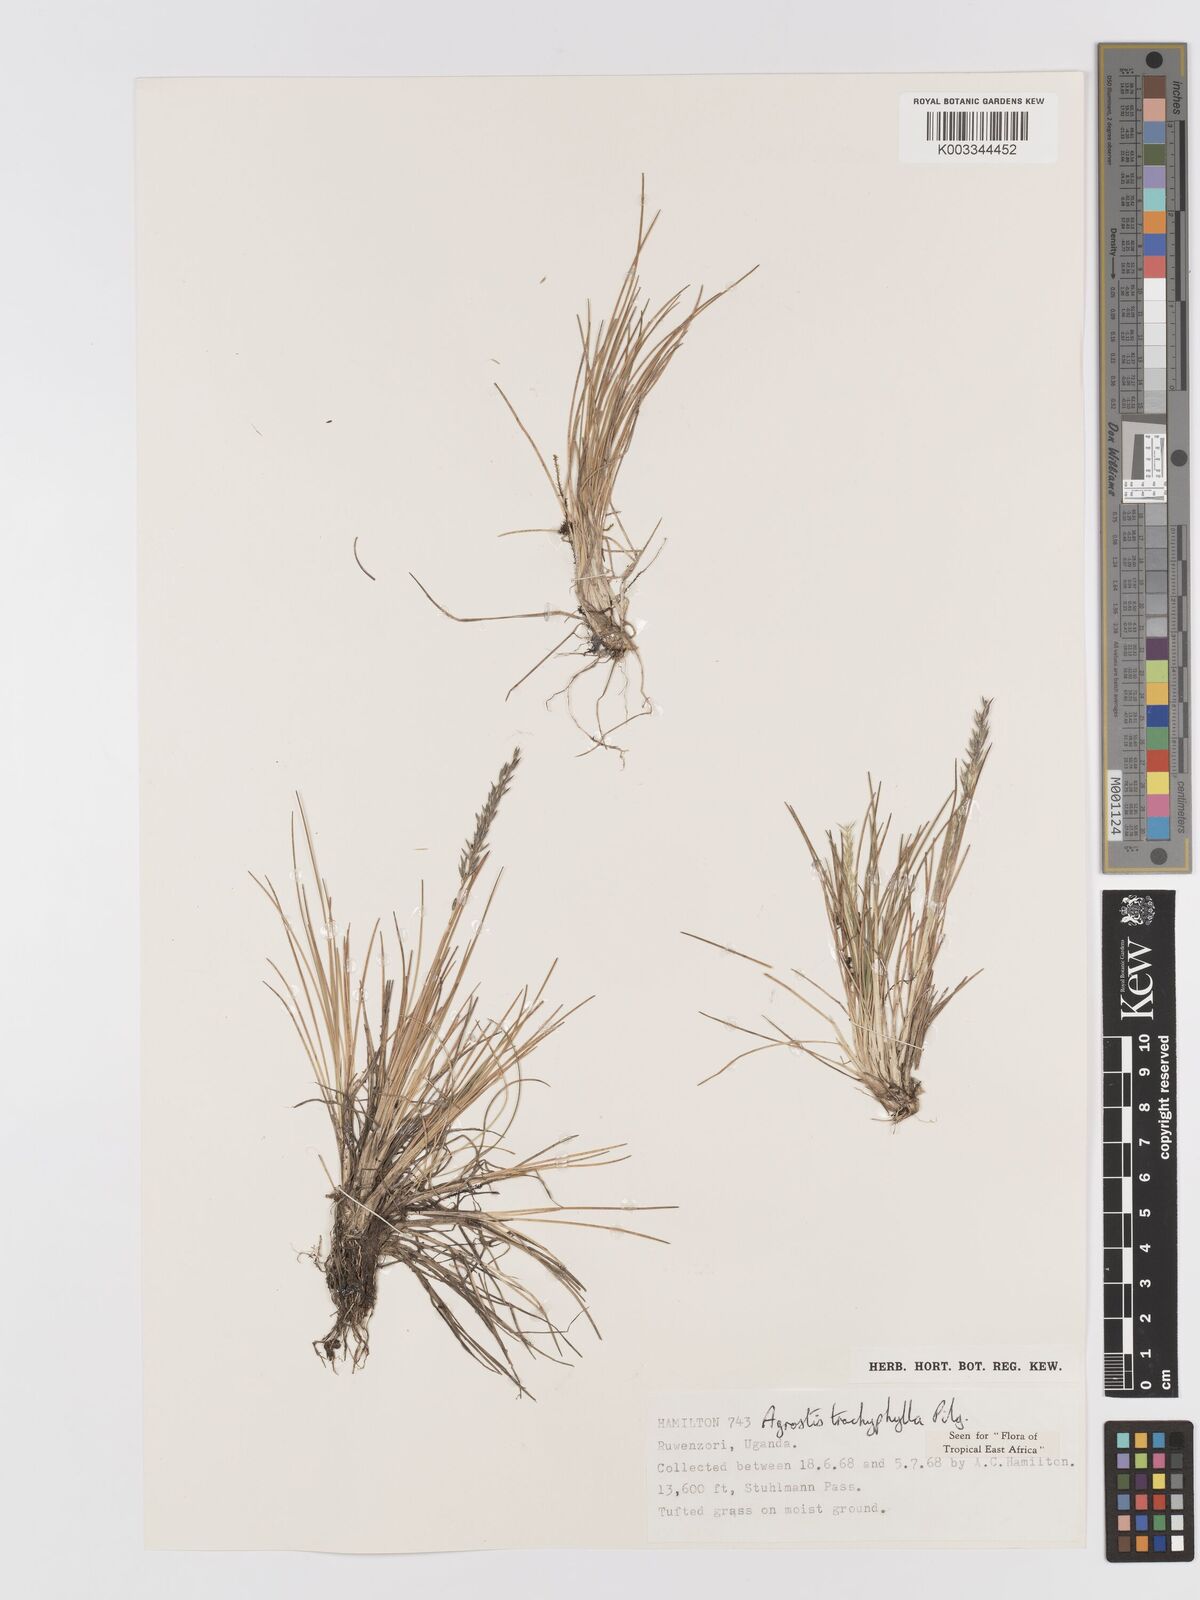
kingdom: Plantae
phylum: Tracheophyta
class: Liliopsida
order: Poales
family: Poaceae
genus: Agrostis
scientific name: Agrostis trachyphylla
